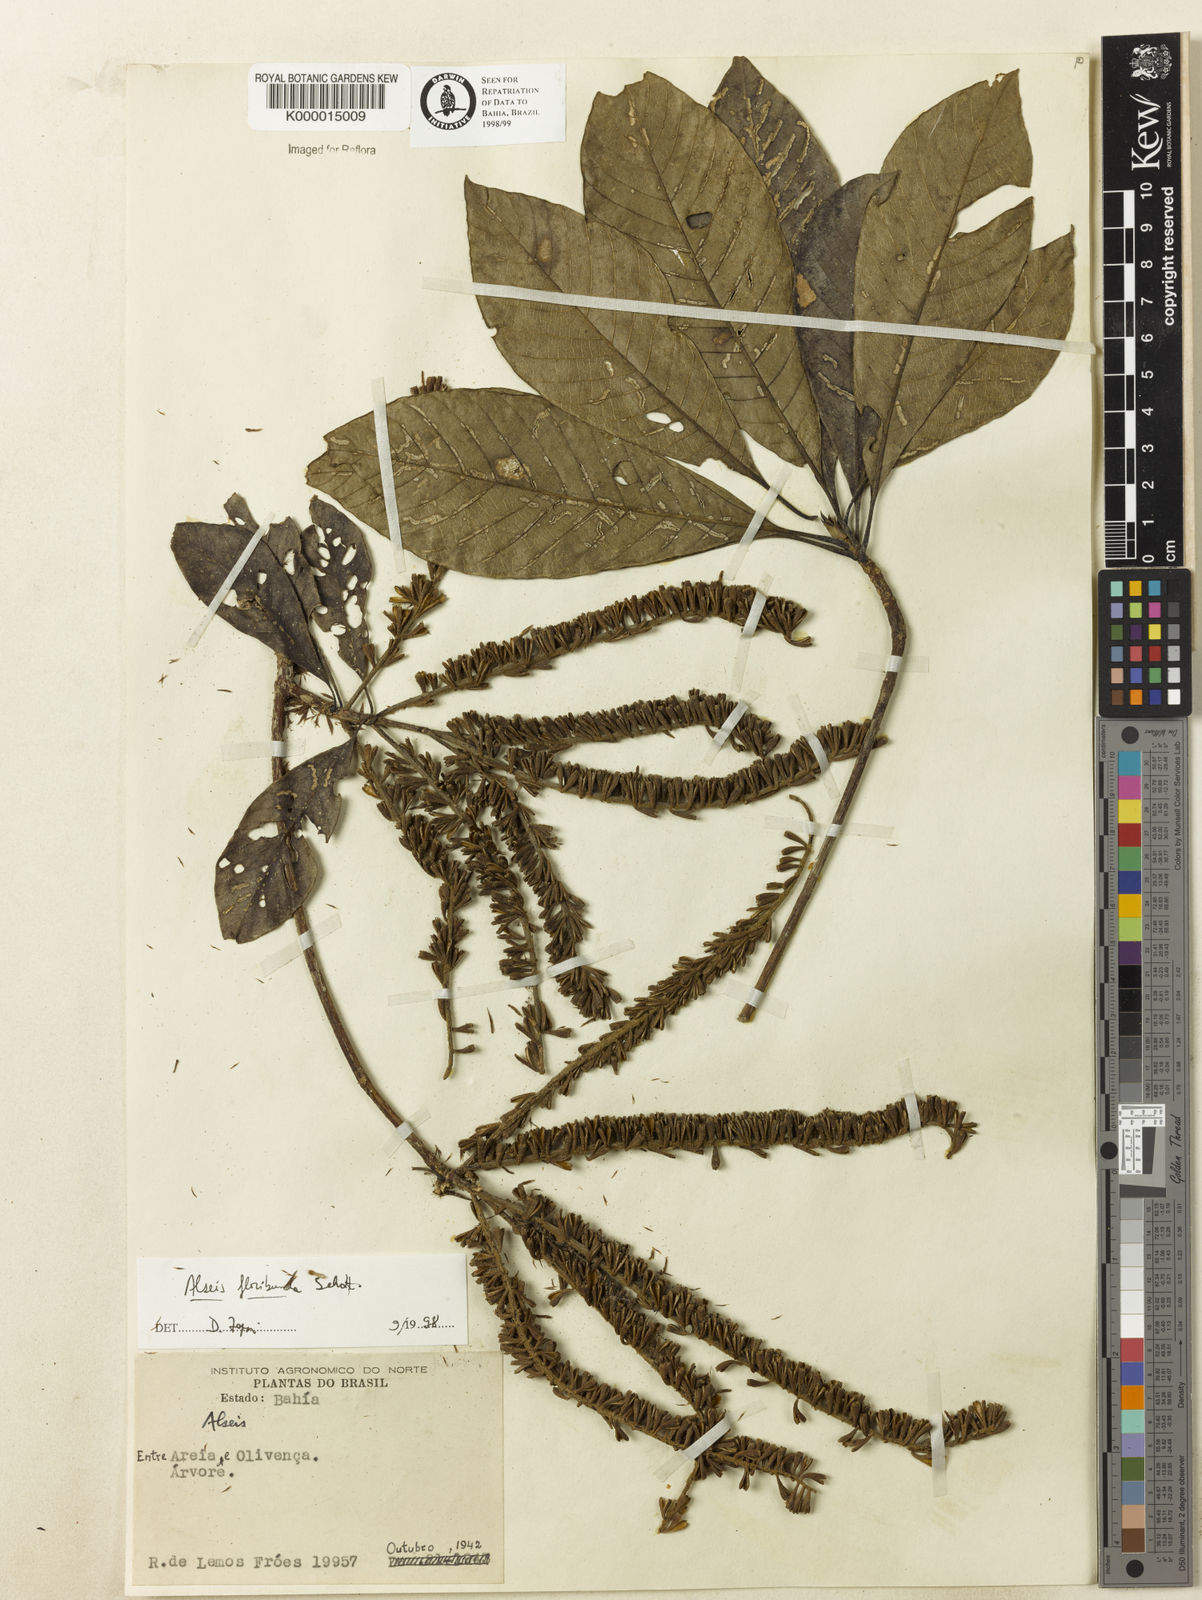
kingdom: Plantae
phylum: Tracheophyta
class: Magnoliopsida
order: Gentianales
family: Rubiaceae
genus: Alseis
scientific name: Alseis pickelii
